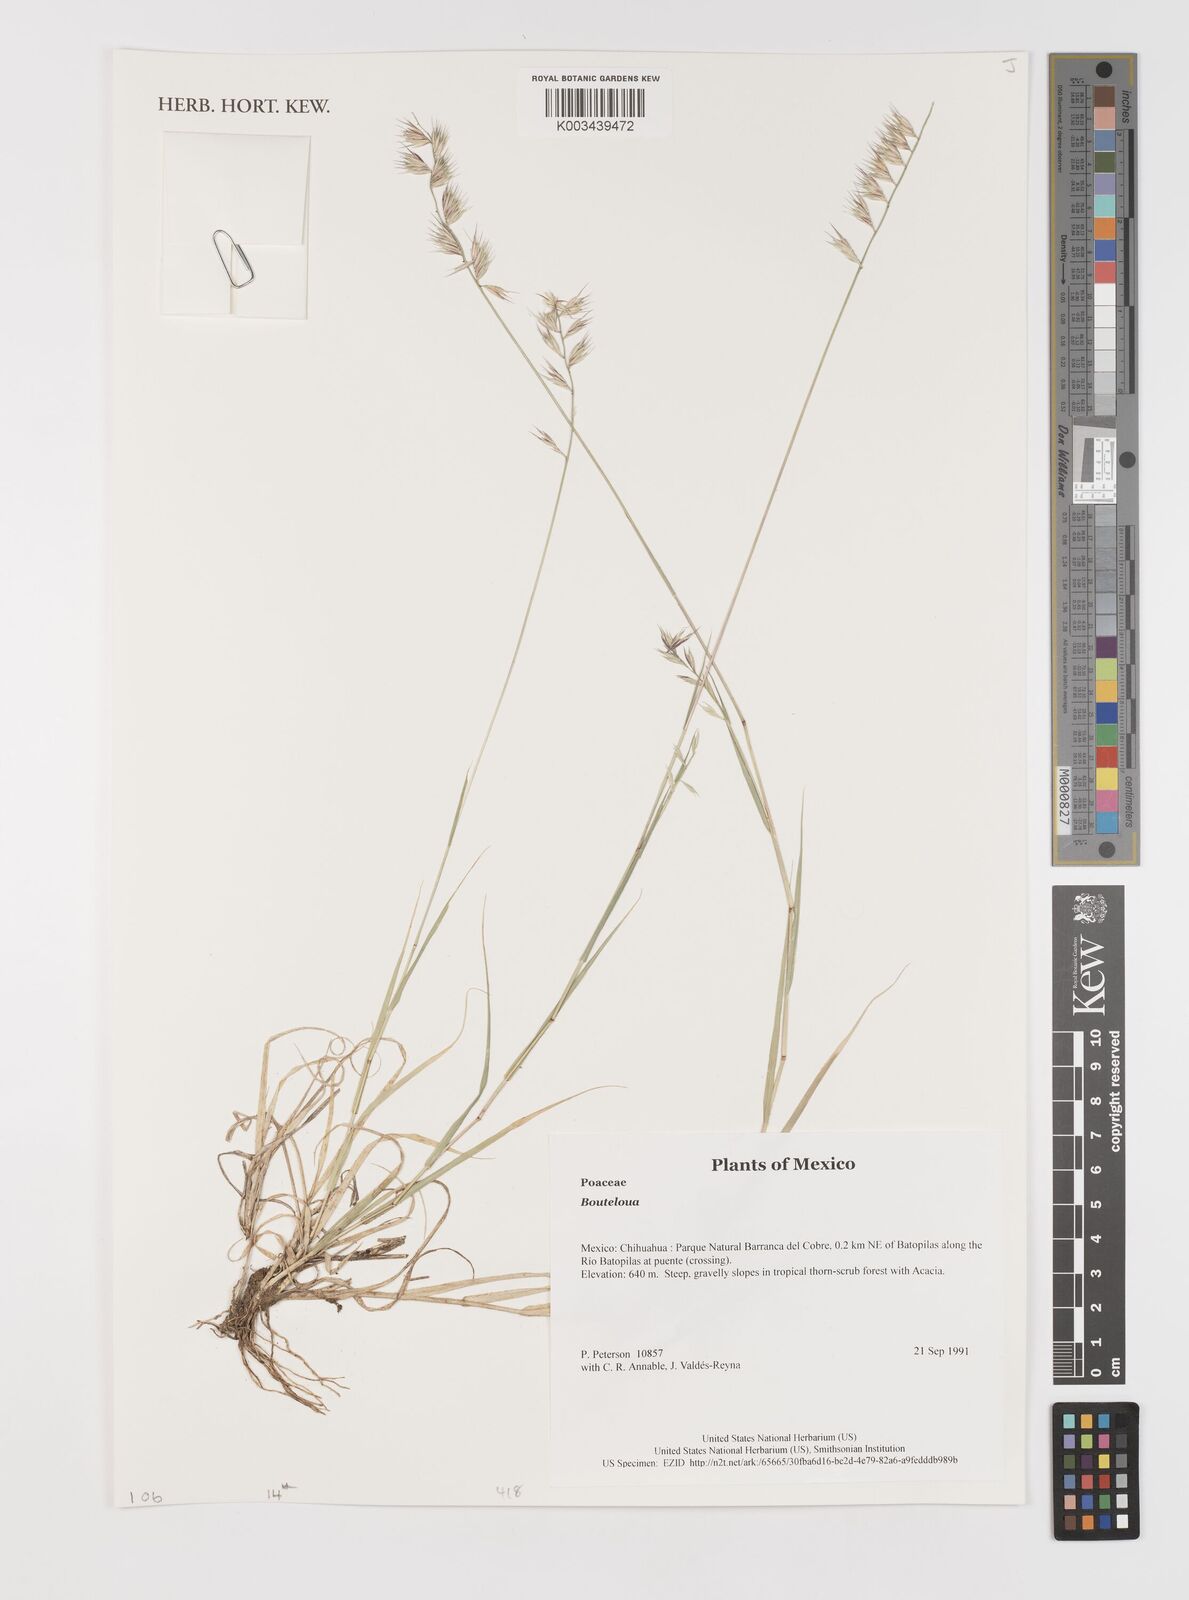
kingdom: Plantae
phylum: Tracheophyta
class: Liliopsida
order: Poales
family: Poaceae
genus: Bouteloua
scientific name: Bouteloua
